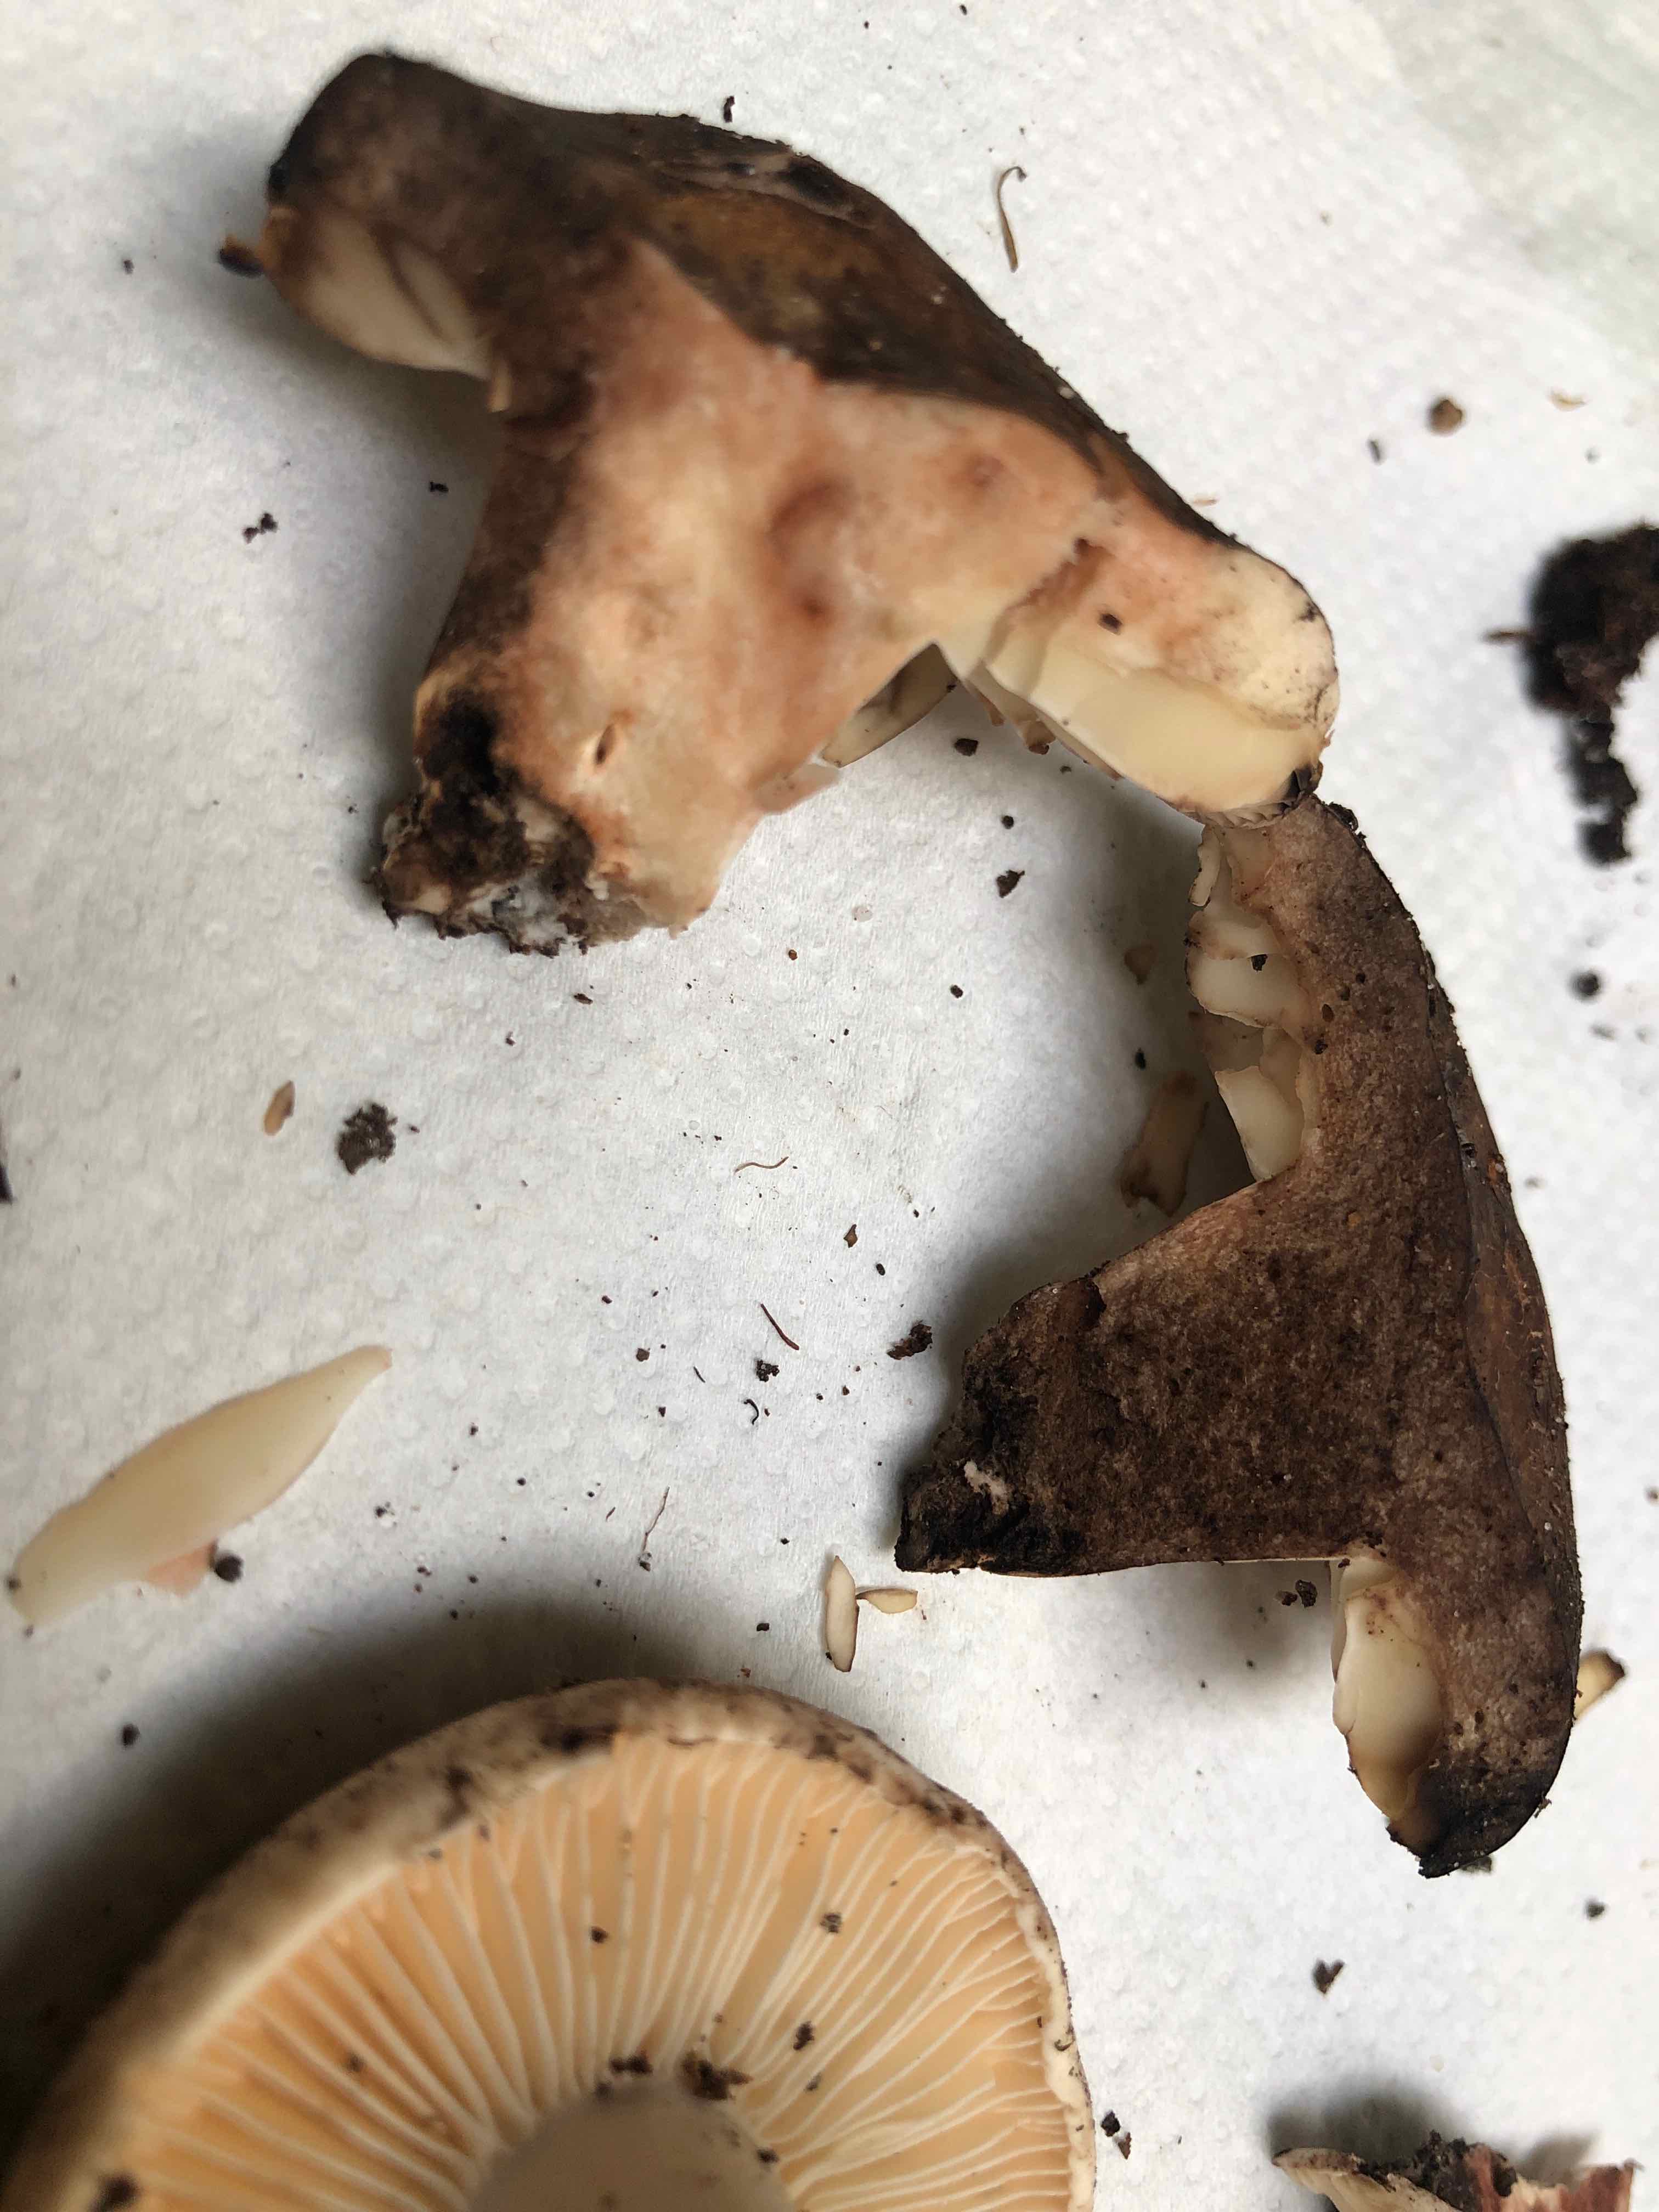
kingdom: Fungi
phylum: Basidiomycota
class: Agaricomycetes
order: Russulales
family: Russulaceae
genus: Russula
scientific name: Russula adusta
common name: sværtende skørhat
